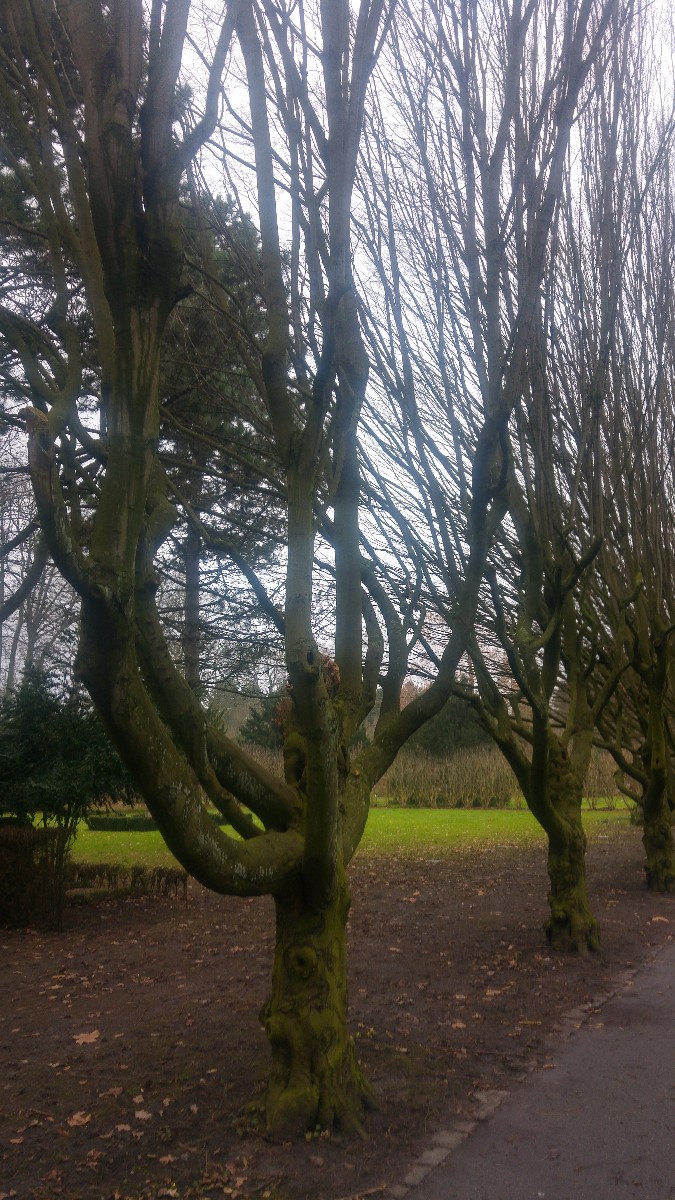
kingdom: Fungi
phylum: Basidiomycota
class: Agaricomycetes
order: Russulales
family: Stereaceae
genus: Stereum
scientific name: Stereum rugosum
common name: rynket lædersvamp
